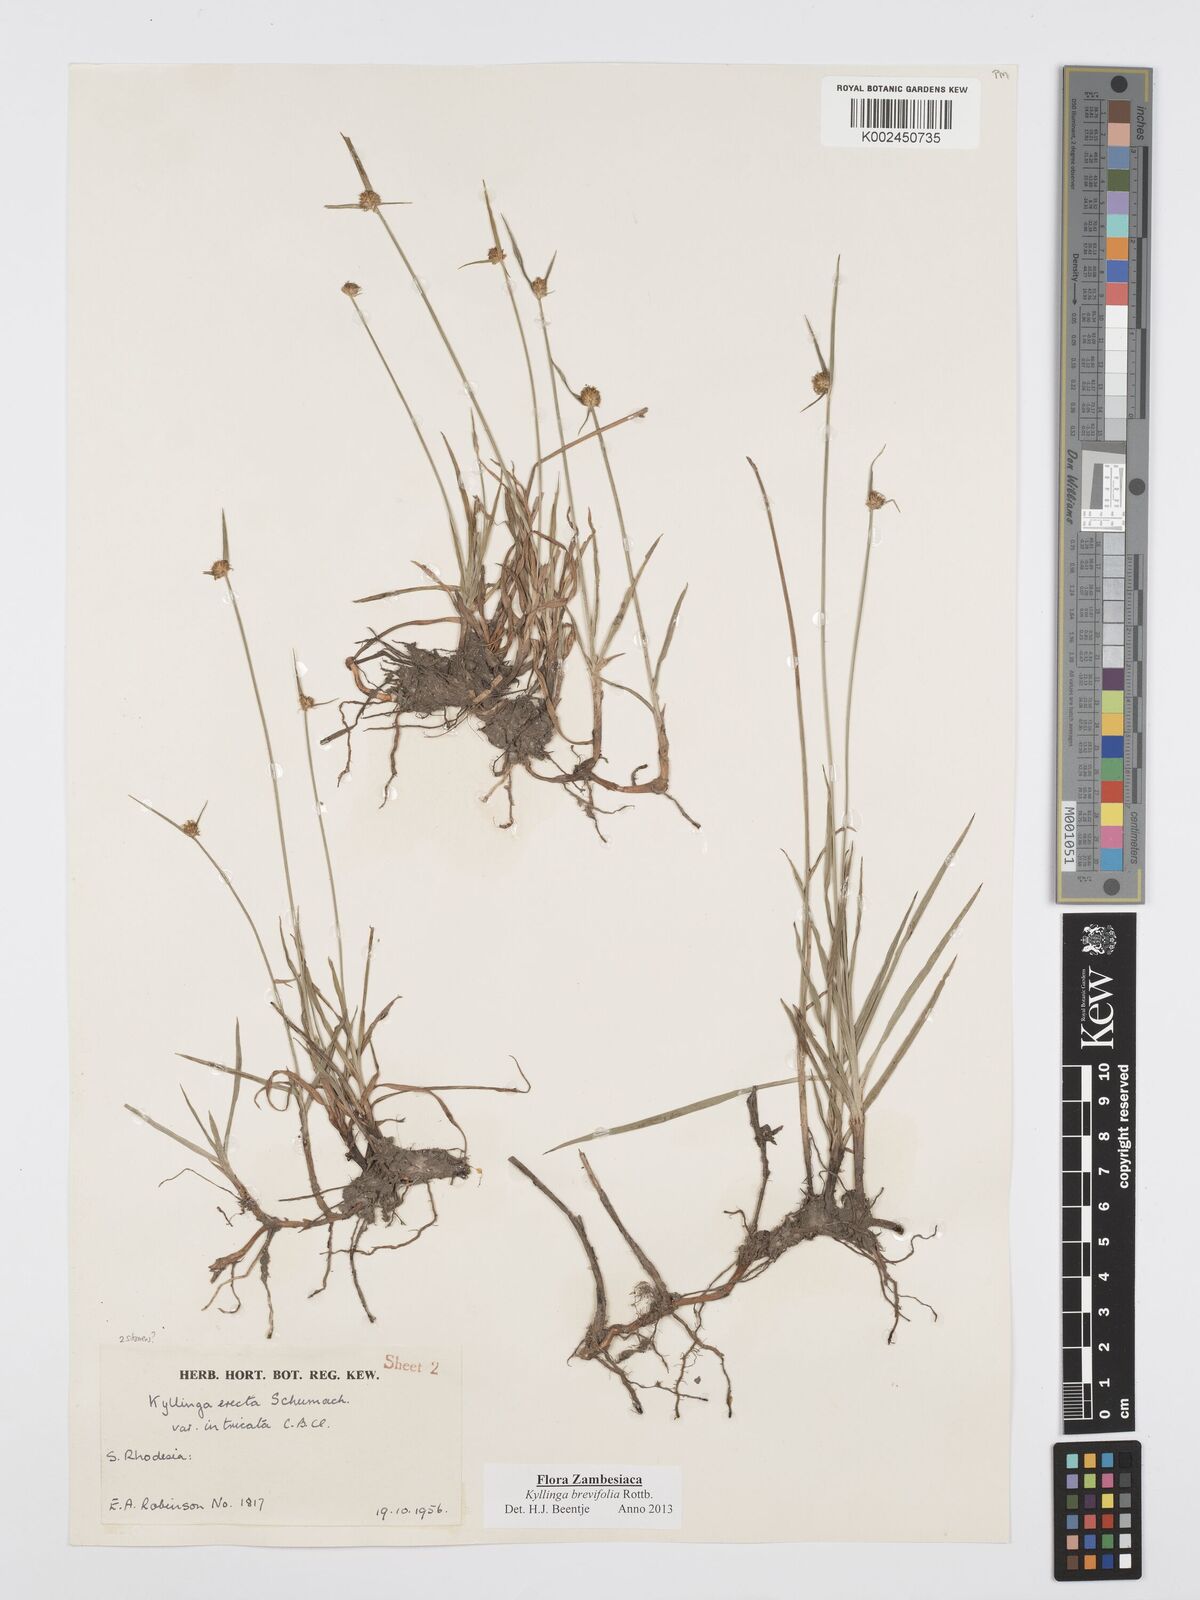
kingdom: Plantae
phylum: Tracheophyta
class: Liliopsida
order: Poales
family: Cyperaceae
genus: Cyperus
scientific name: Cyperus brevifolius
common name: Globe kyllinga
